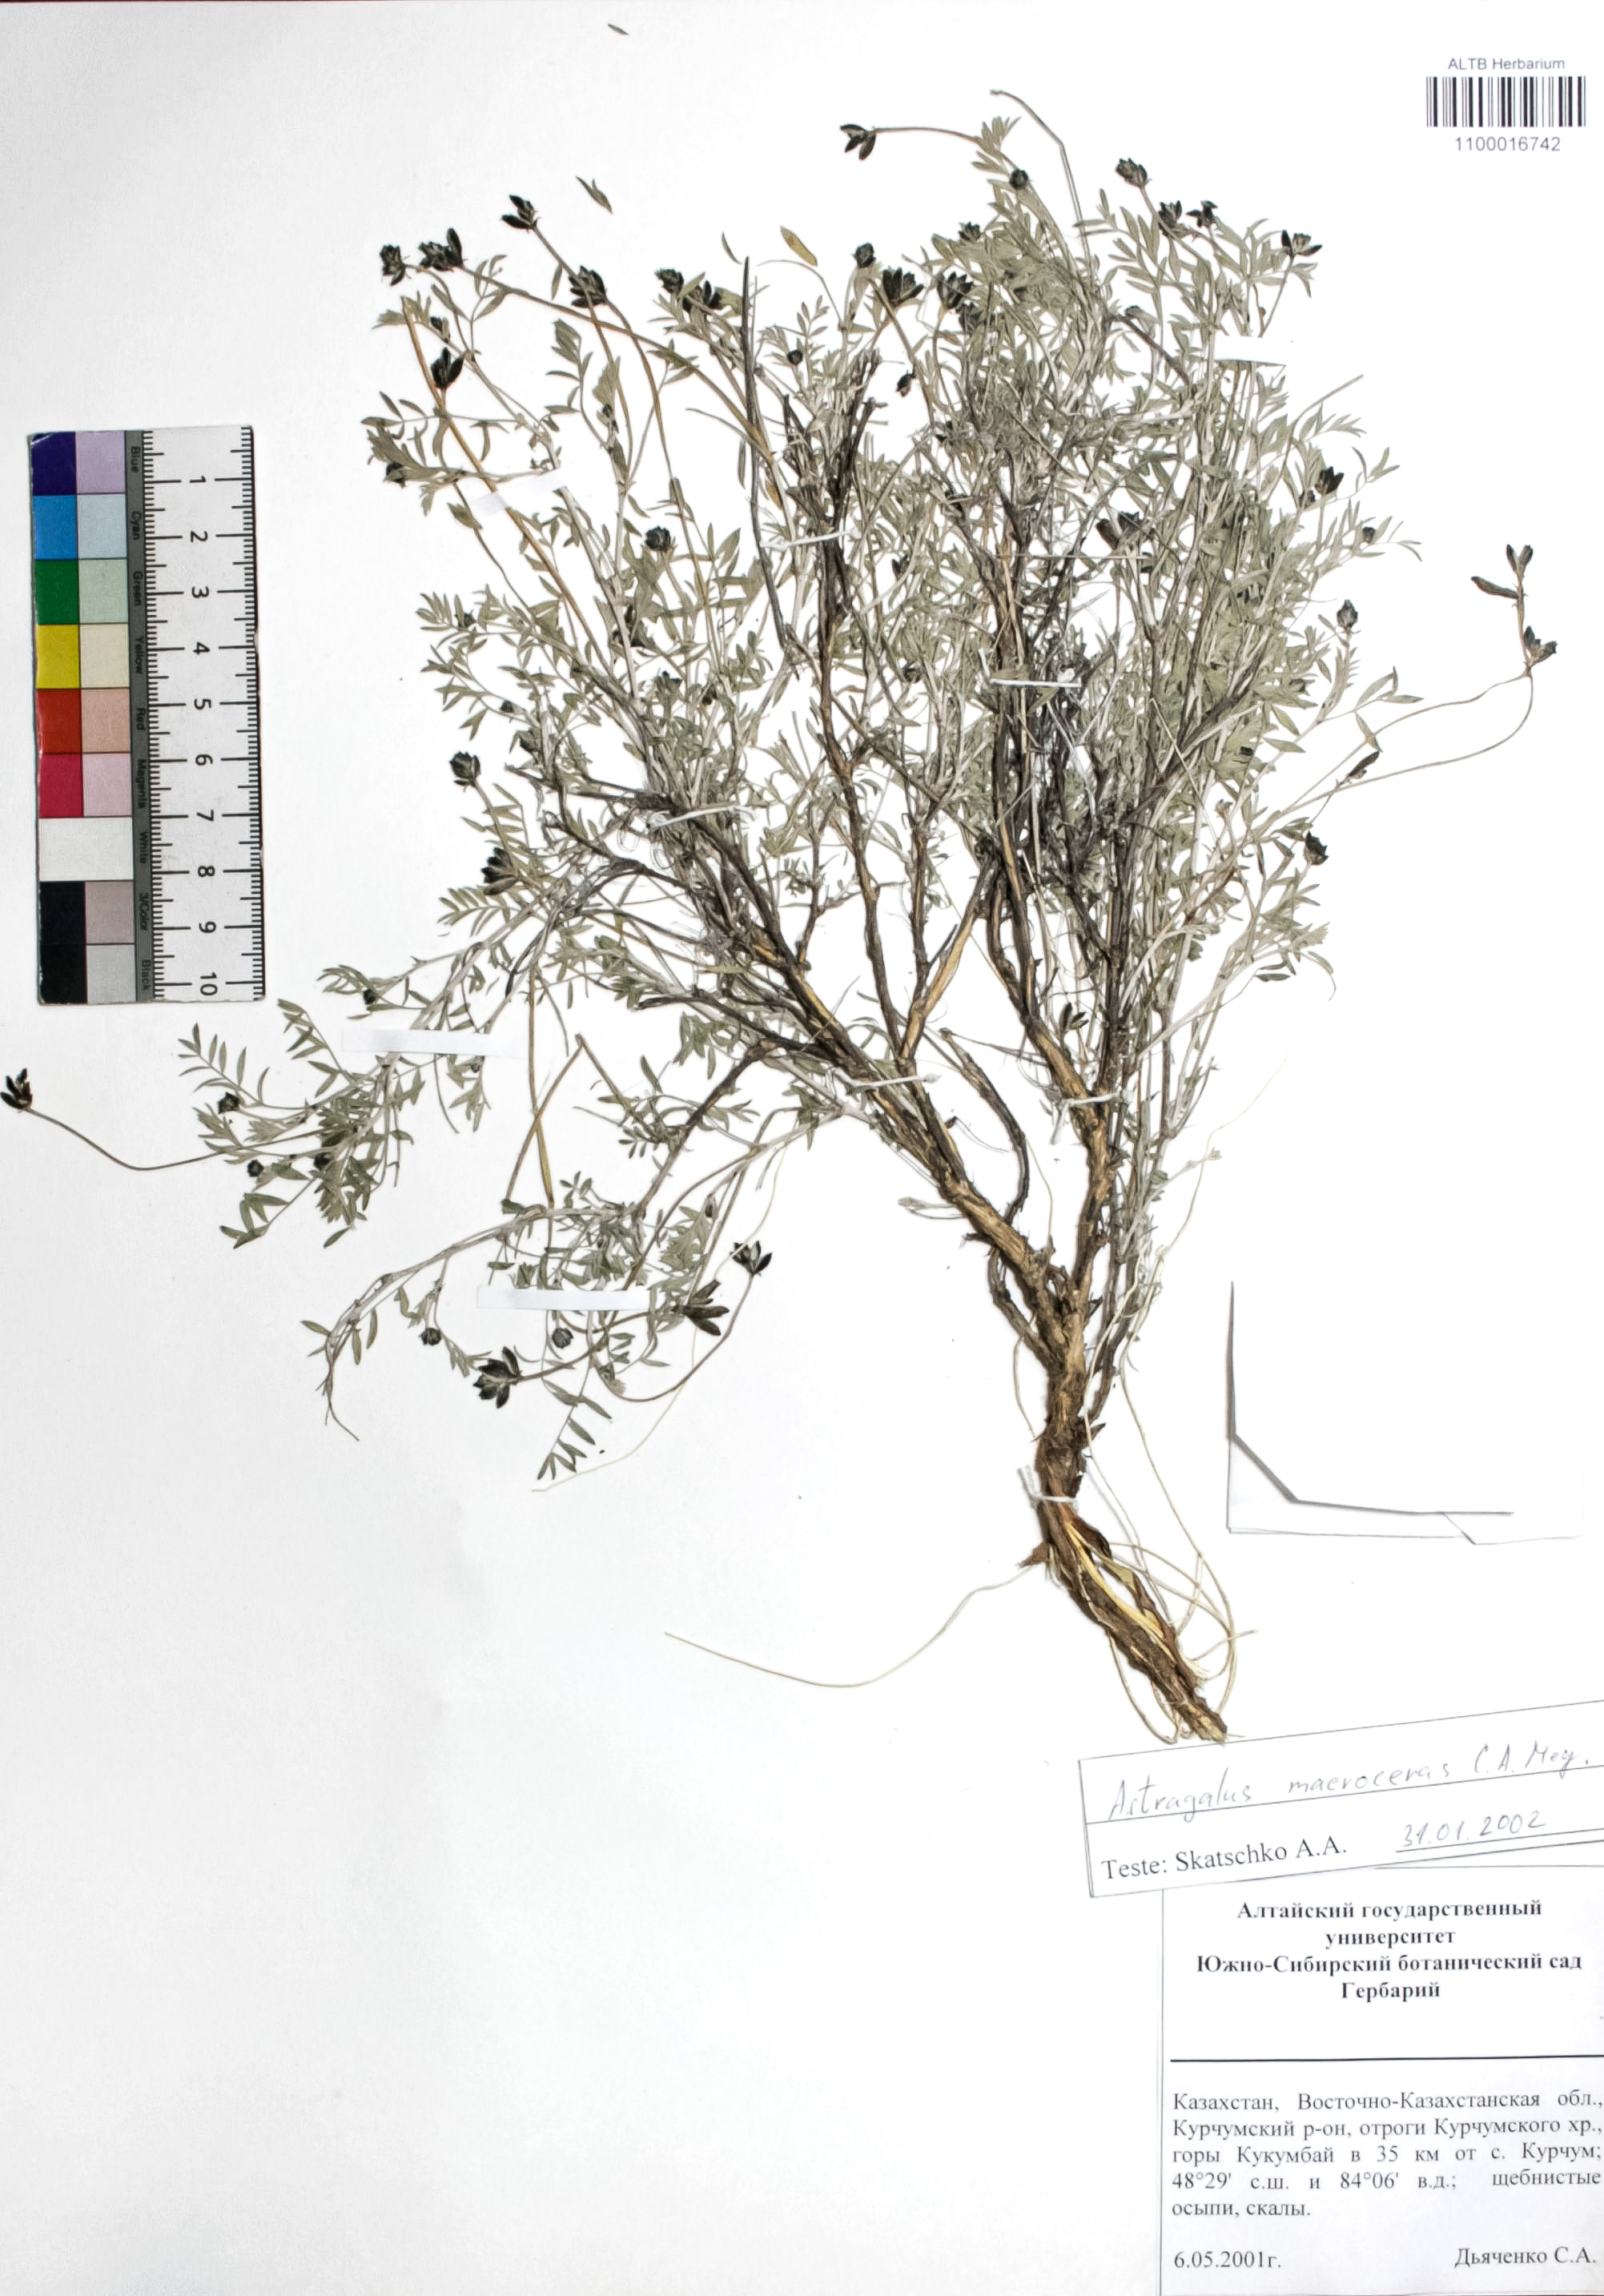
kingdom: Plantae
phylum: Tracheophyta
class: Magnoliopsida
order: Fabales
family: Fabaceae
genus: Astragalus
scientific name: Astragalus macroceras
